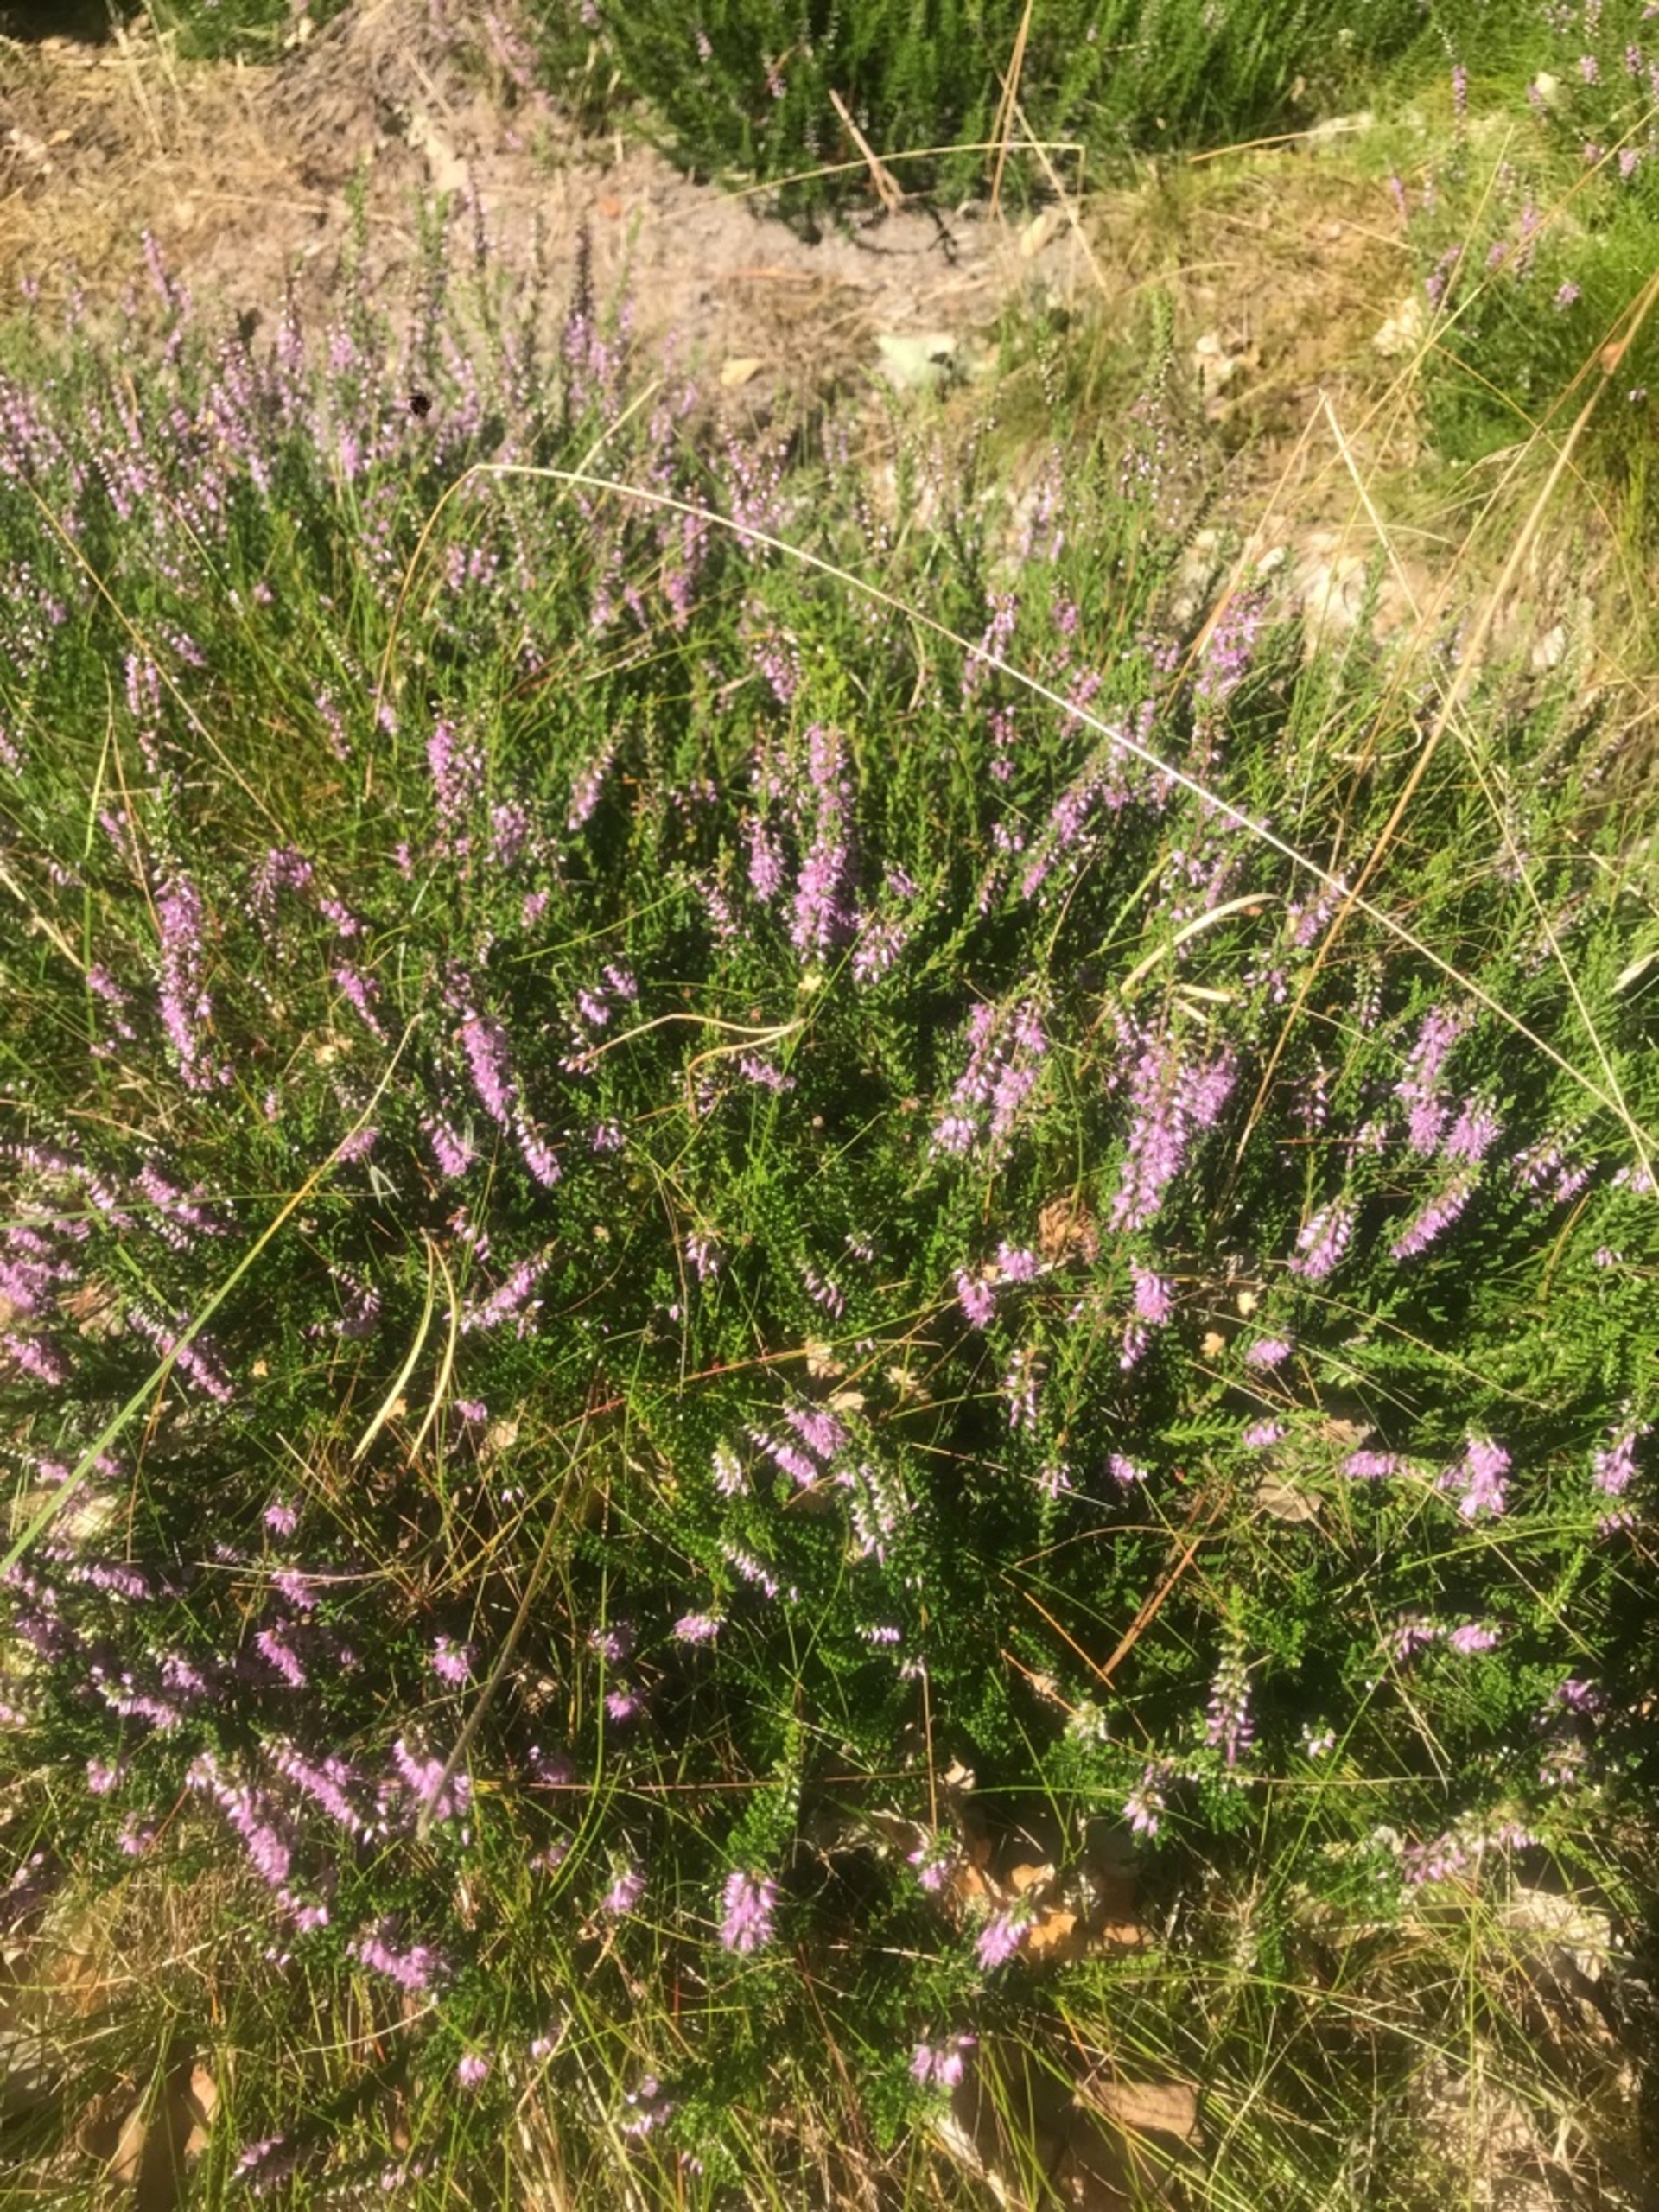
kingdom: Plantae
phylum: Tracheophyta
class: Magnoliopsida
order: Ericales
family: Ericaceae
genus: Calluna
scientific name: Calluna vulgaris
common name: Hedelyng
